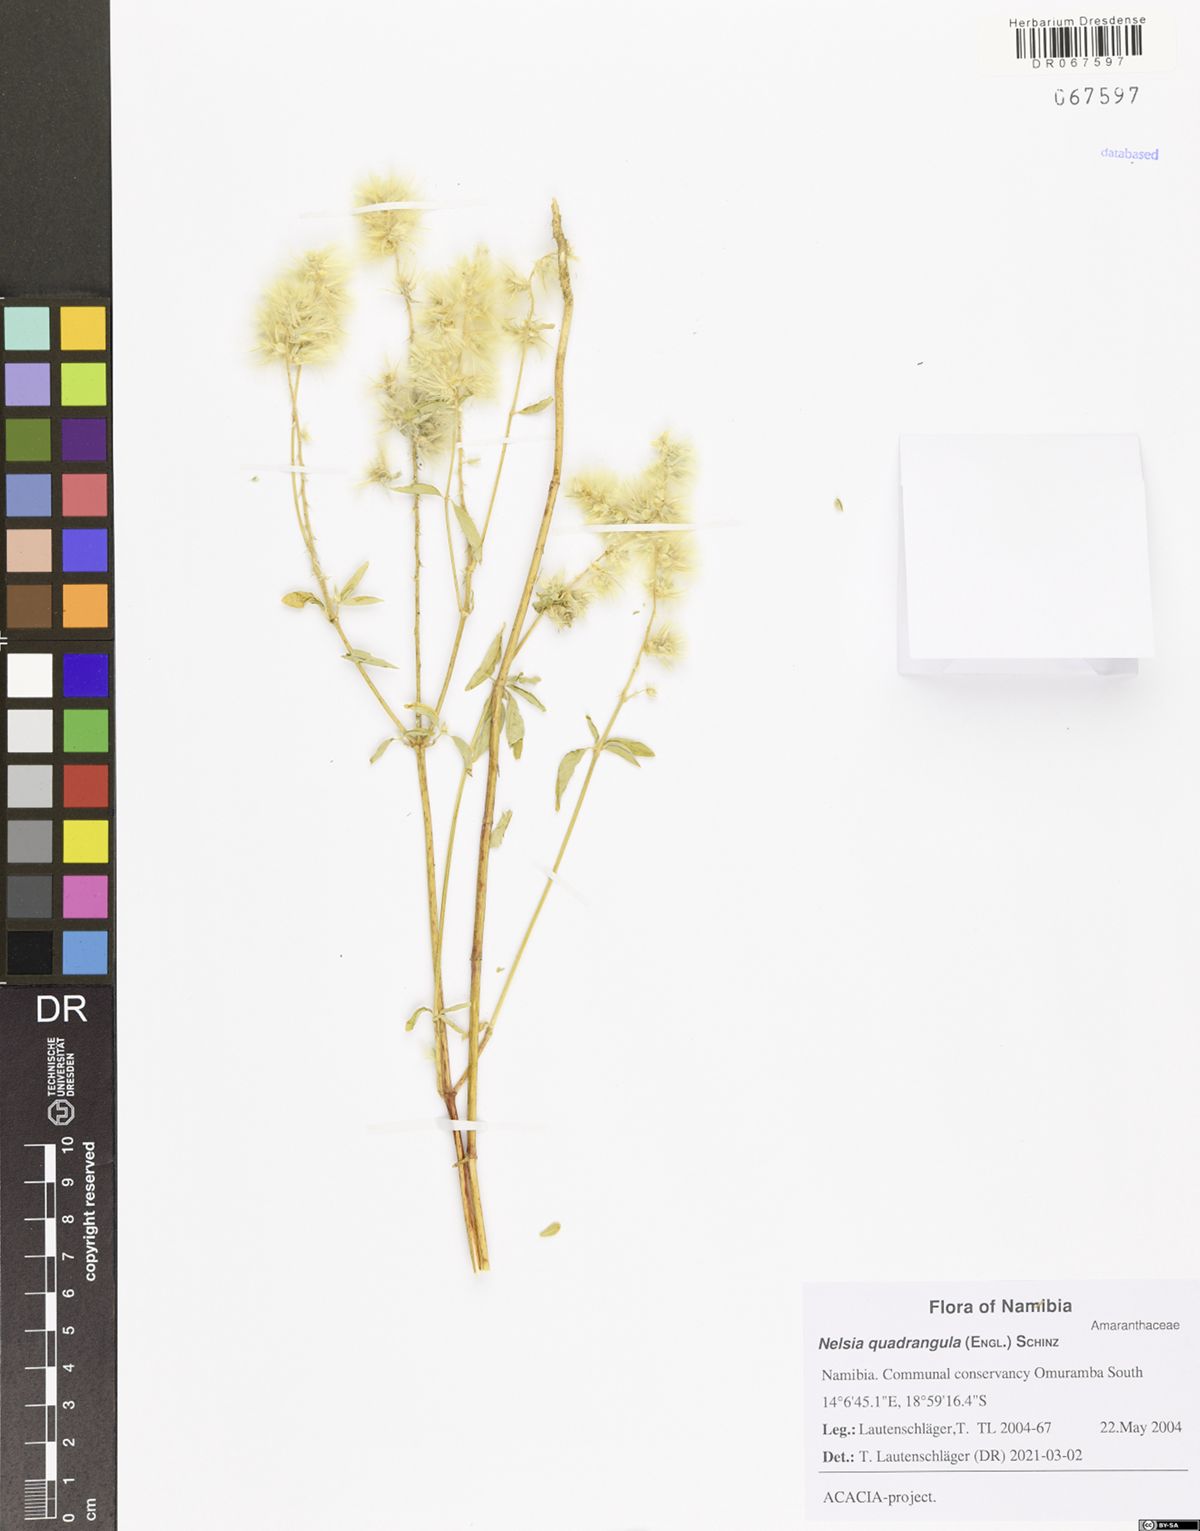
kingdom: Plantae
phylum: Tracheophyta
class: Magnoliopsida
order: Caryophyllales
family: Amaranthaceae
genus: Nelsia
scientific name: Nelsia quadrangula
